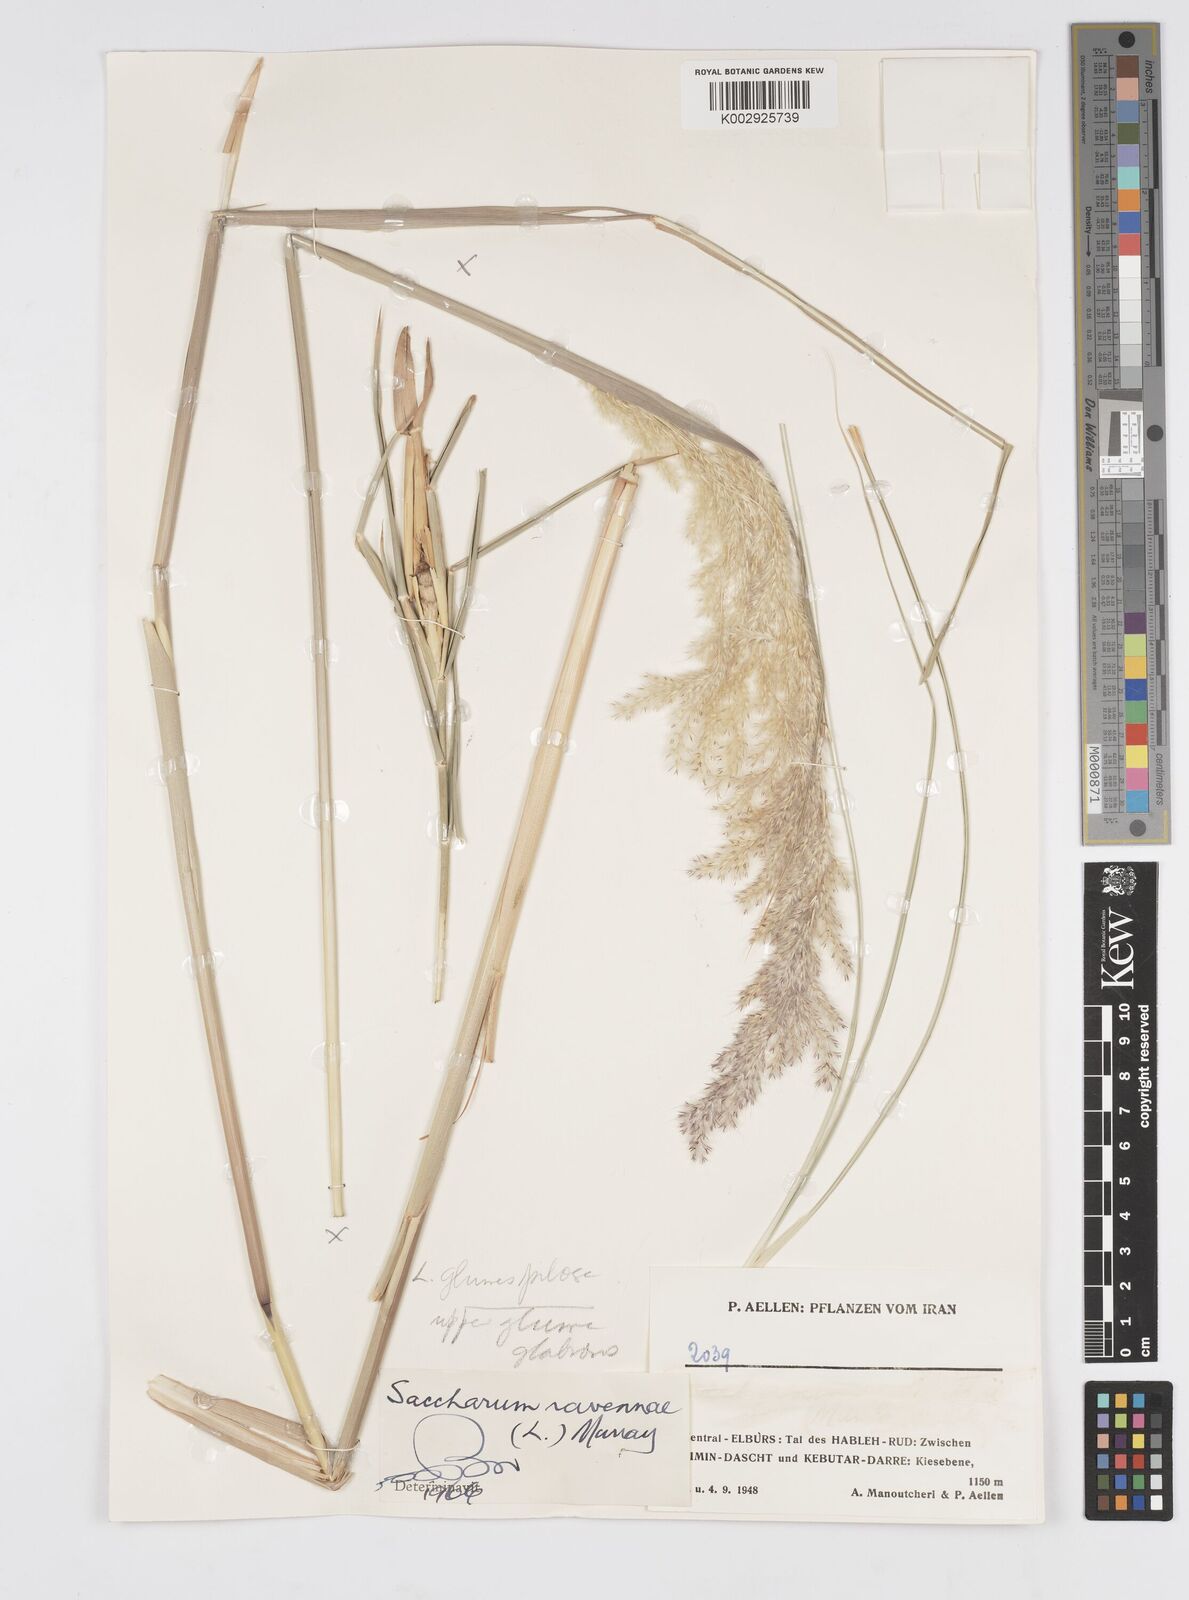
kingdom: Plantae
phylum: Tracheophyta
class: Liliopsida
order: Poales
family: Poaceae
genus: Tripidium
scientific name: Tripidium ravennae
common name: Ravenna grass
